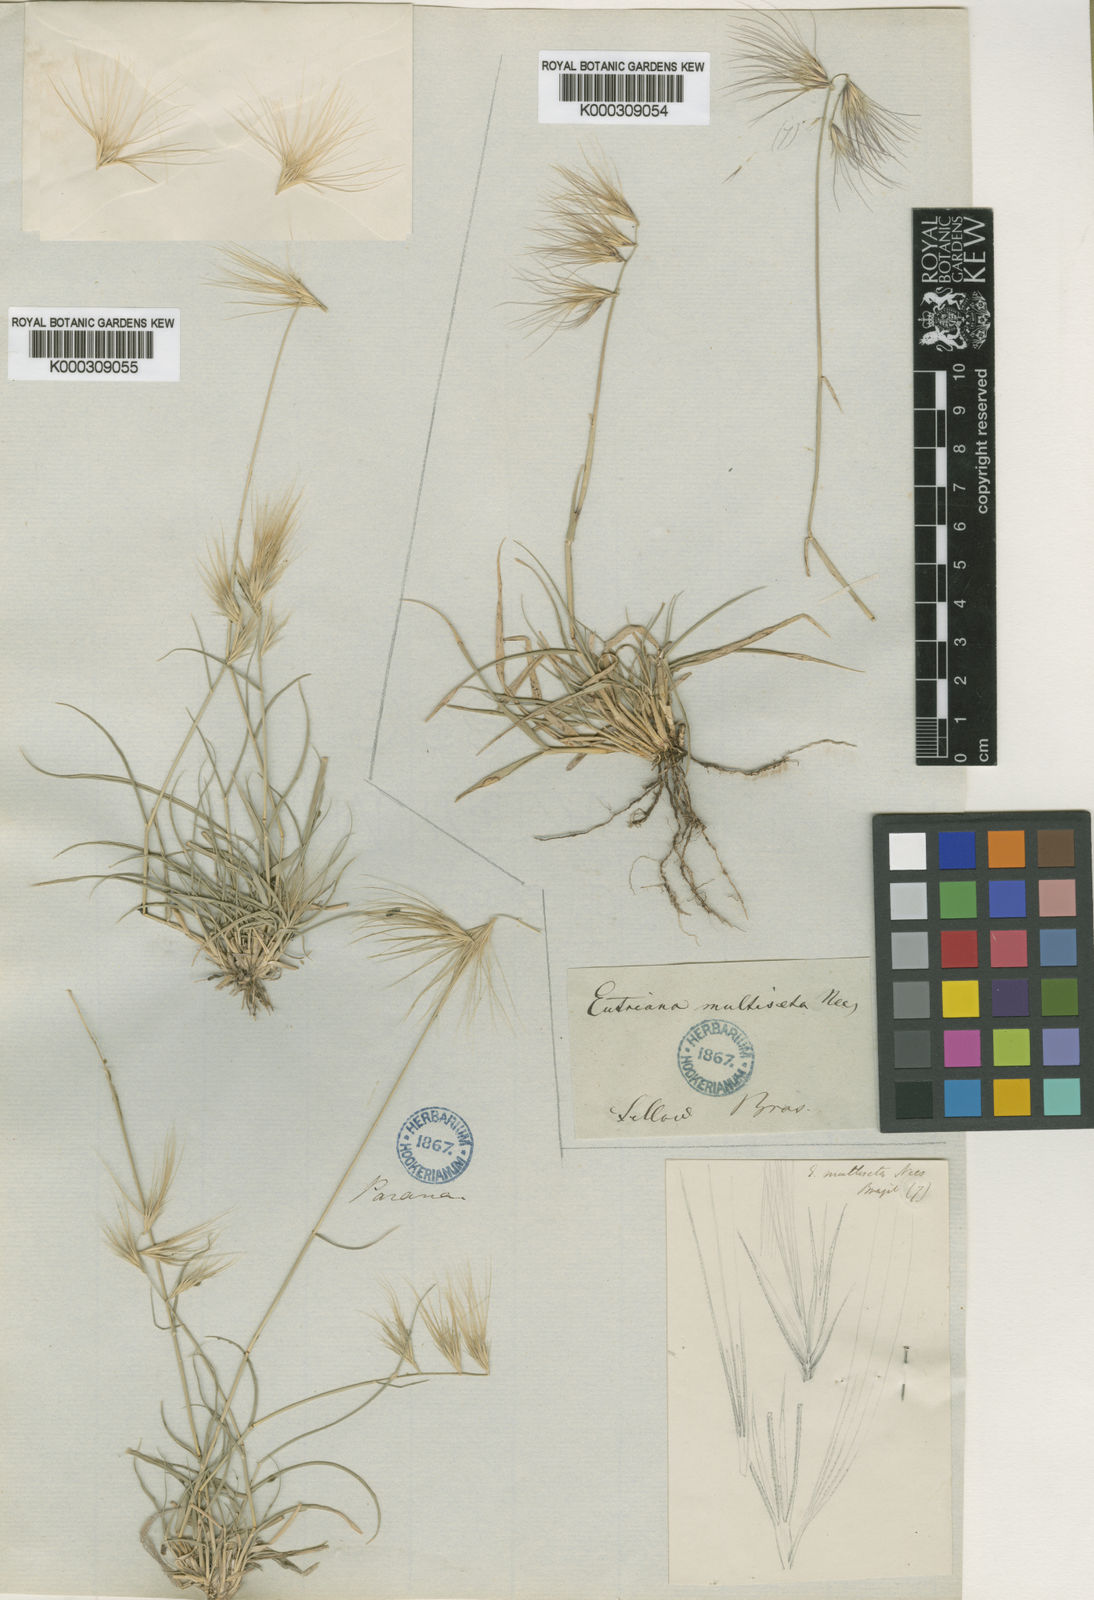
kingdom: Plantae
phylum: Tracheophyta
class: Liliopsida
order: Poales
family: Poaceae
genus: Bouteloua
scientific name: Bouteloua megapotamica
